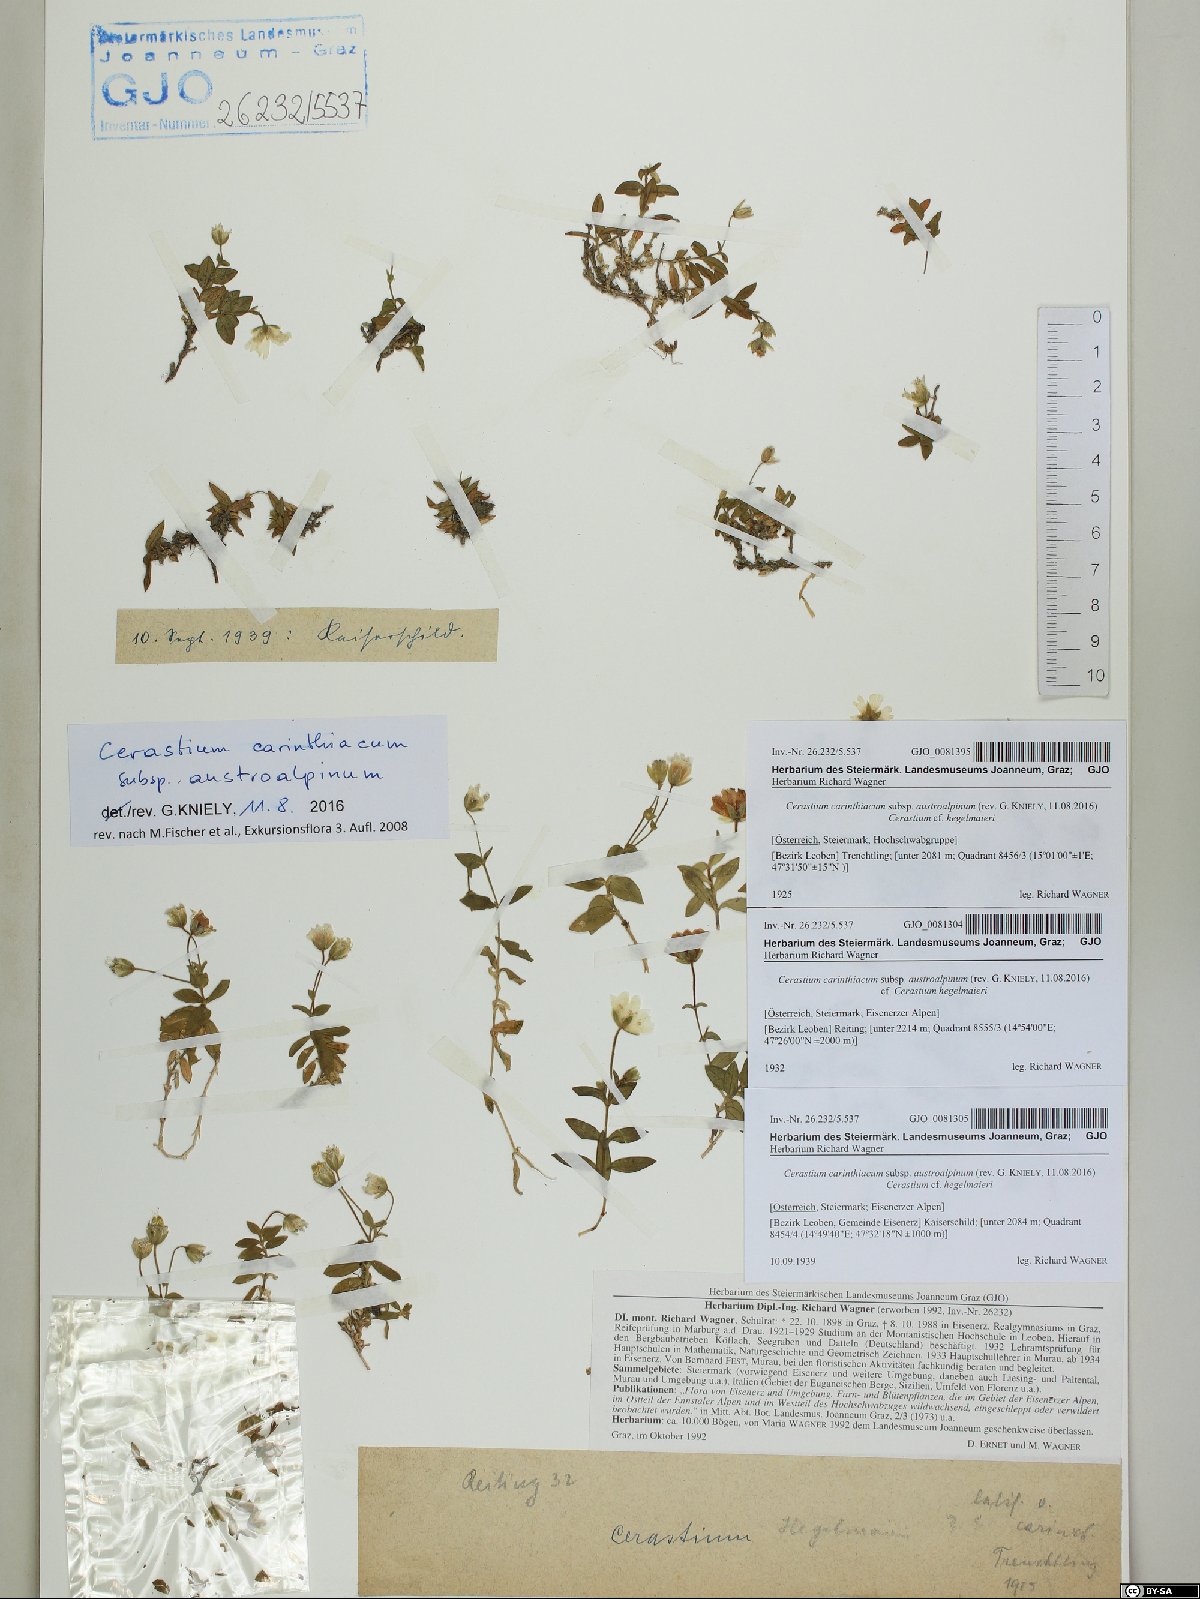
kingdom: Plantae
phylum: Tracheophyta
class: Magnoliopsida
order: Caryophyllales
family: Caryophyllaceae
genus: Cerastium
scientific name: Cerastium carinthiacum
